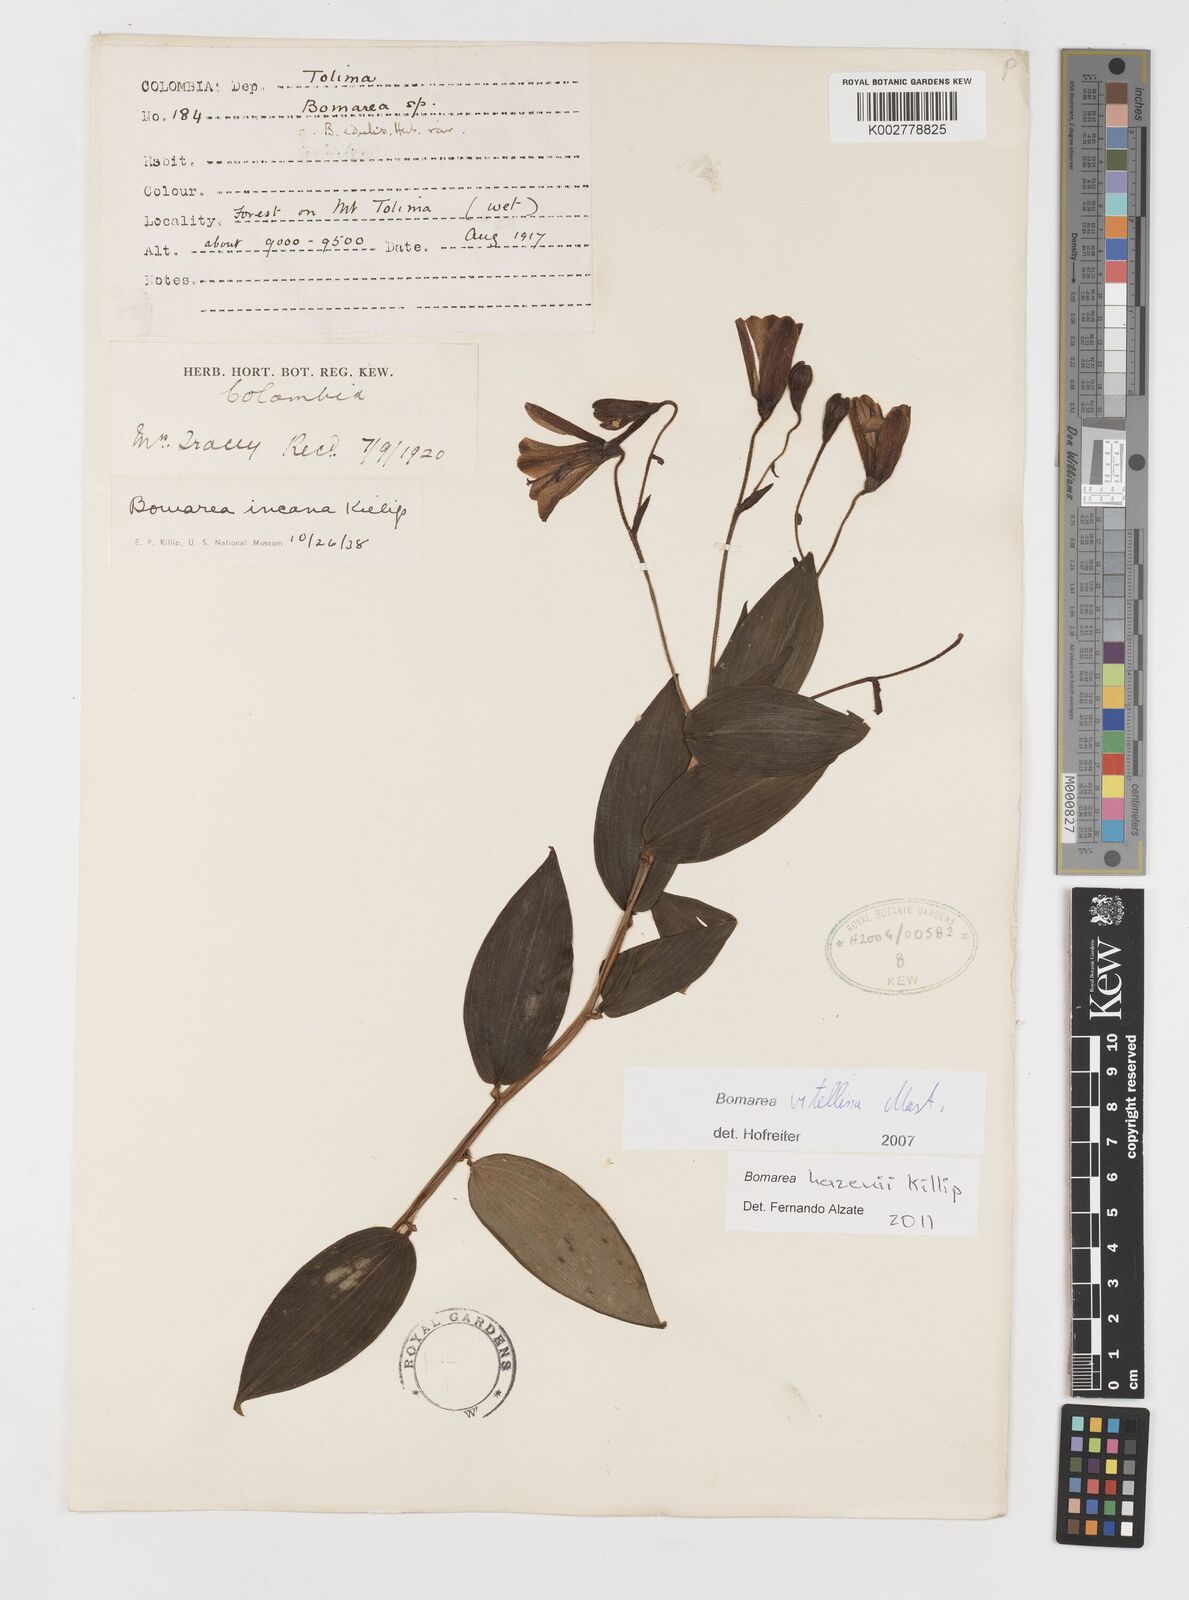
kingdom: Plantae
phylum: Tracheophyta
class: Liliopsida
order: Liliales
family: Alstroemeriaceae
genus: Bomarea
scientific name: Bomarea vitellina
